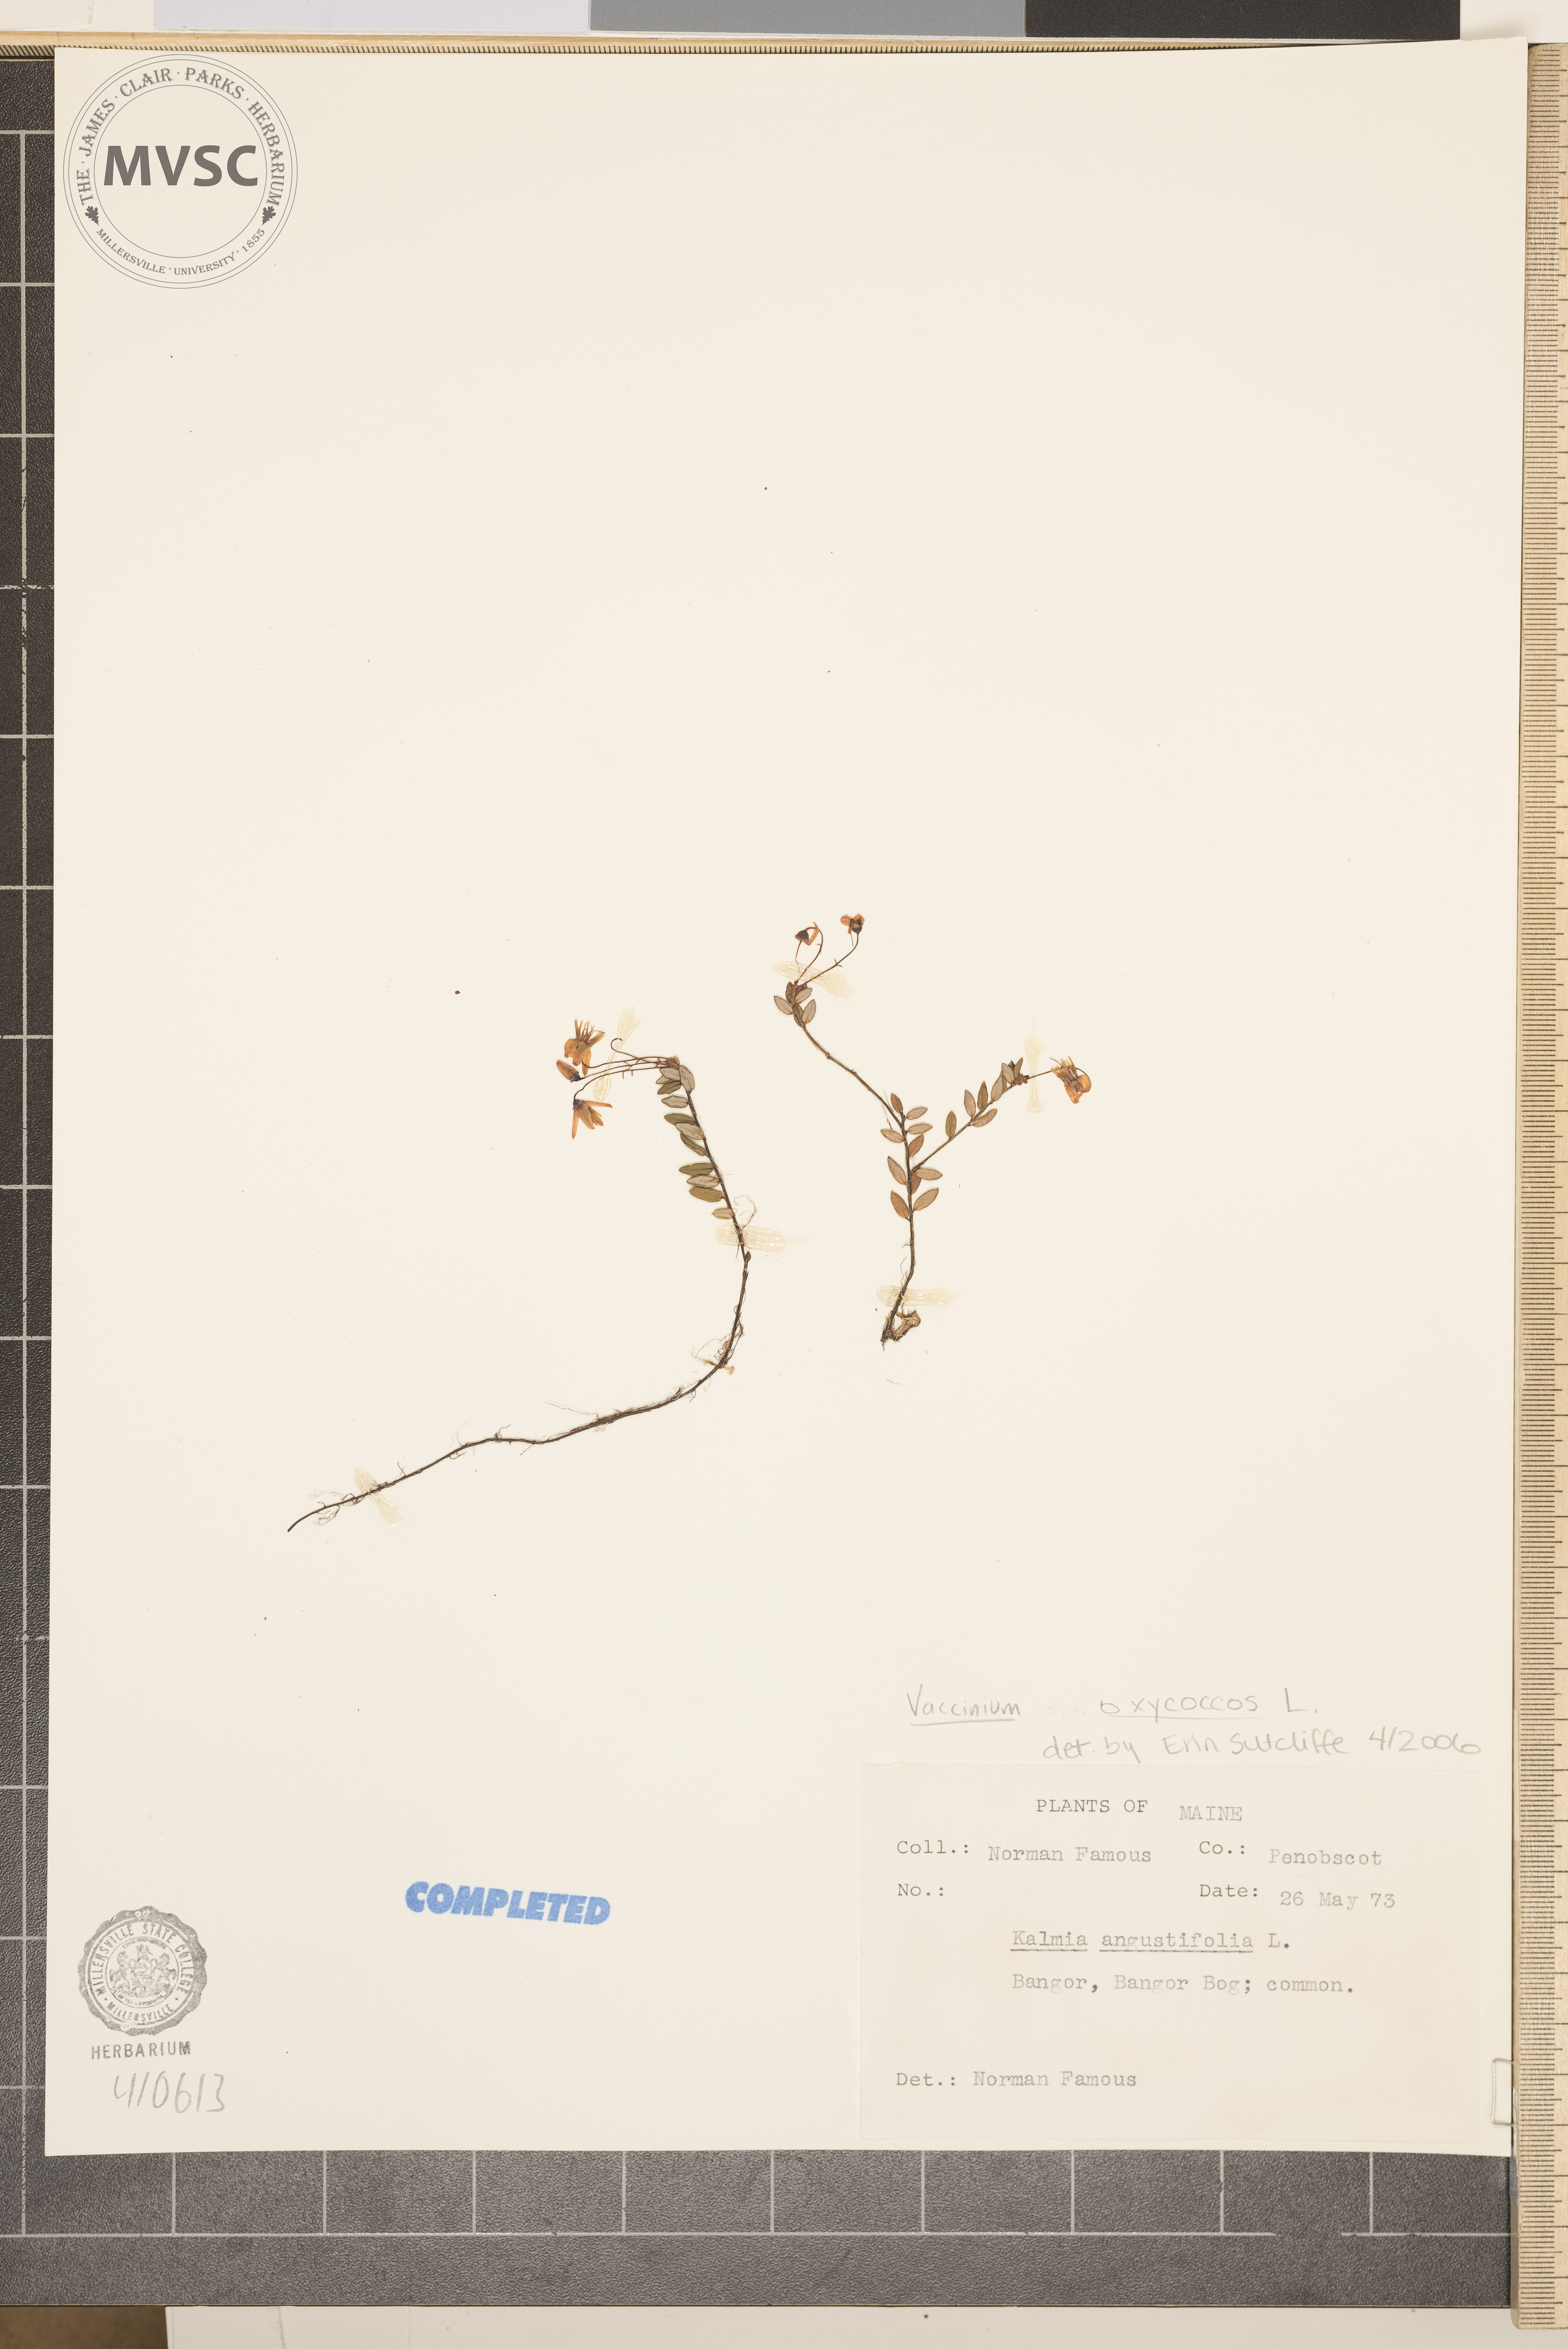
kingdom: Plantae
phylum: Tracheophyta
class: Magnoliopsida
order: Ericales
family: Ericaceae
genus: Vaccinium
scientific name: Vaccinium oxycoccos
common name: Cranberry
